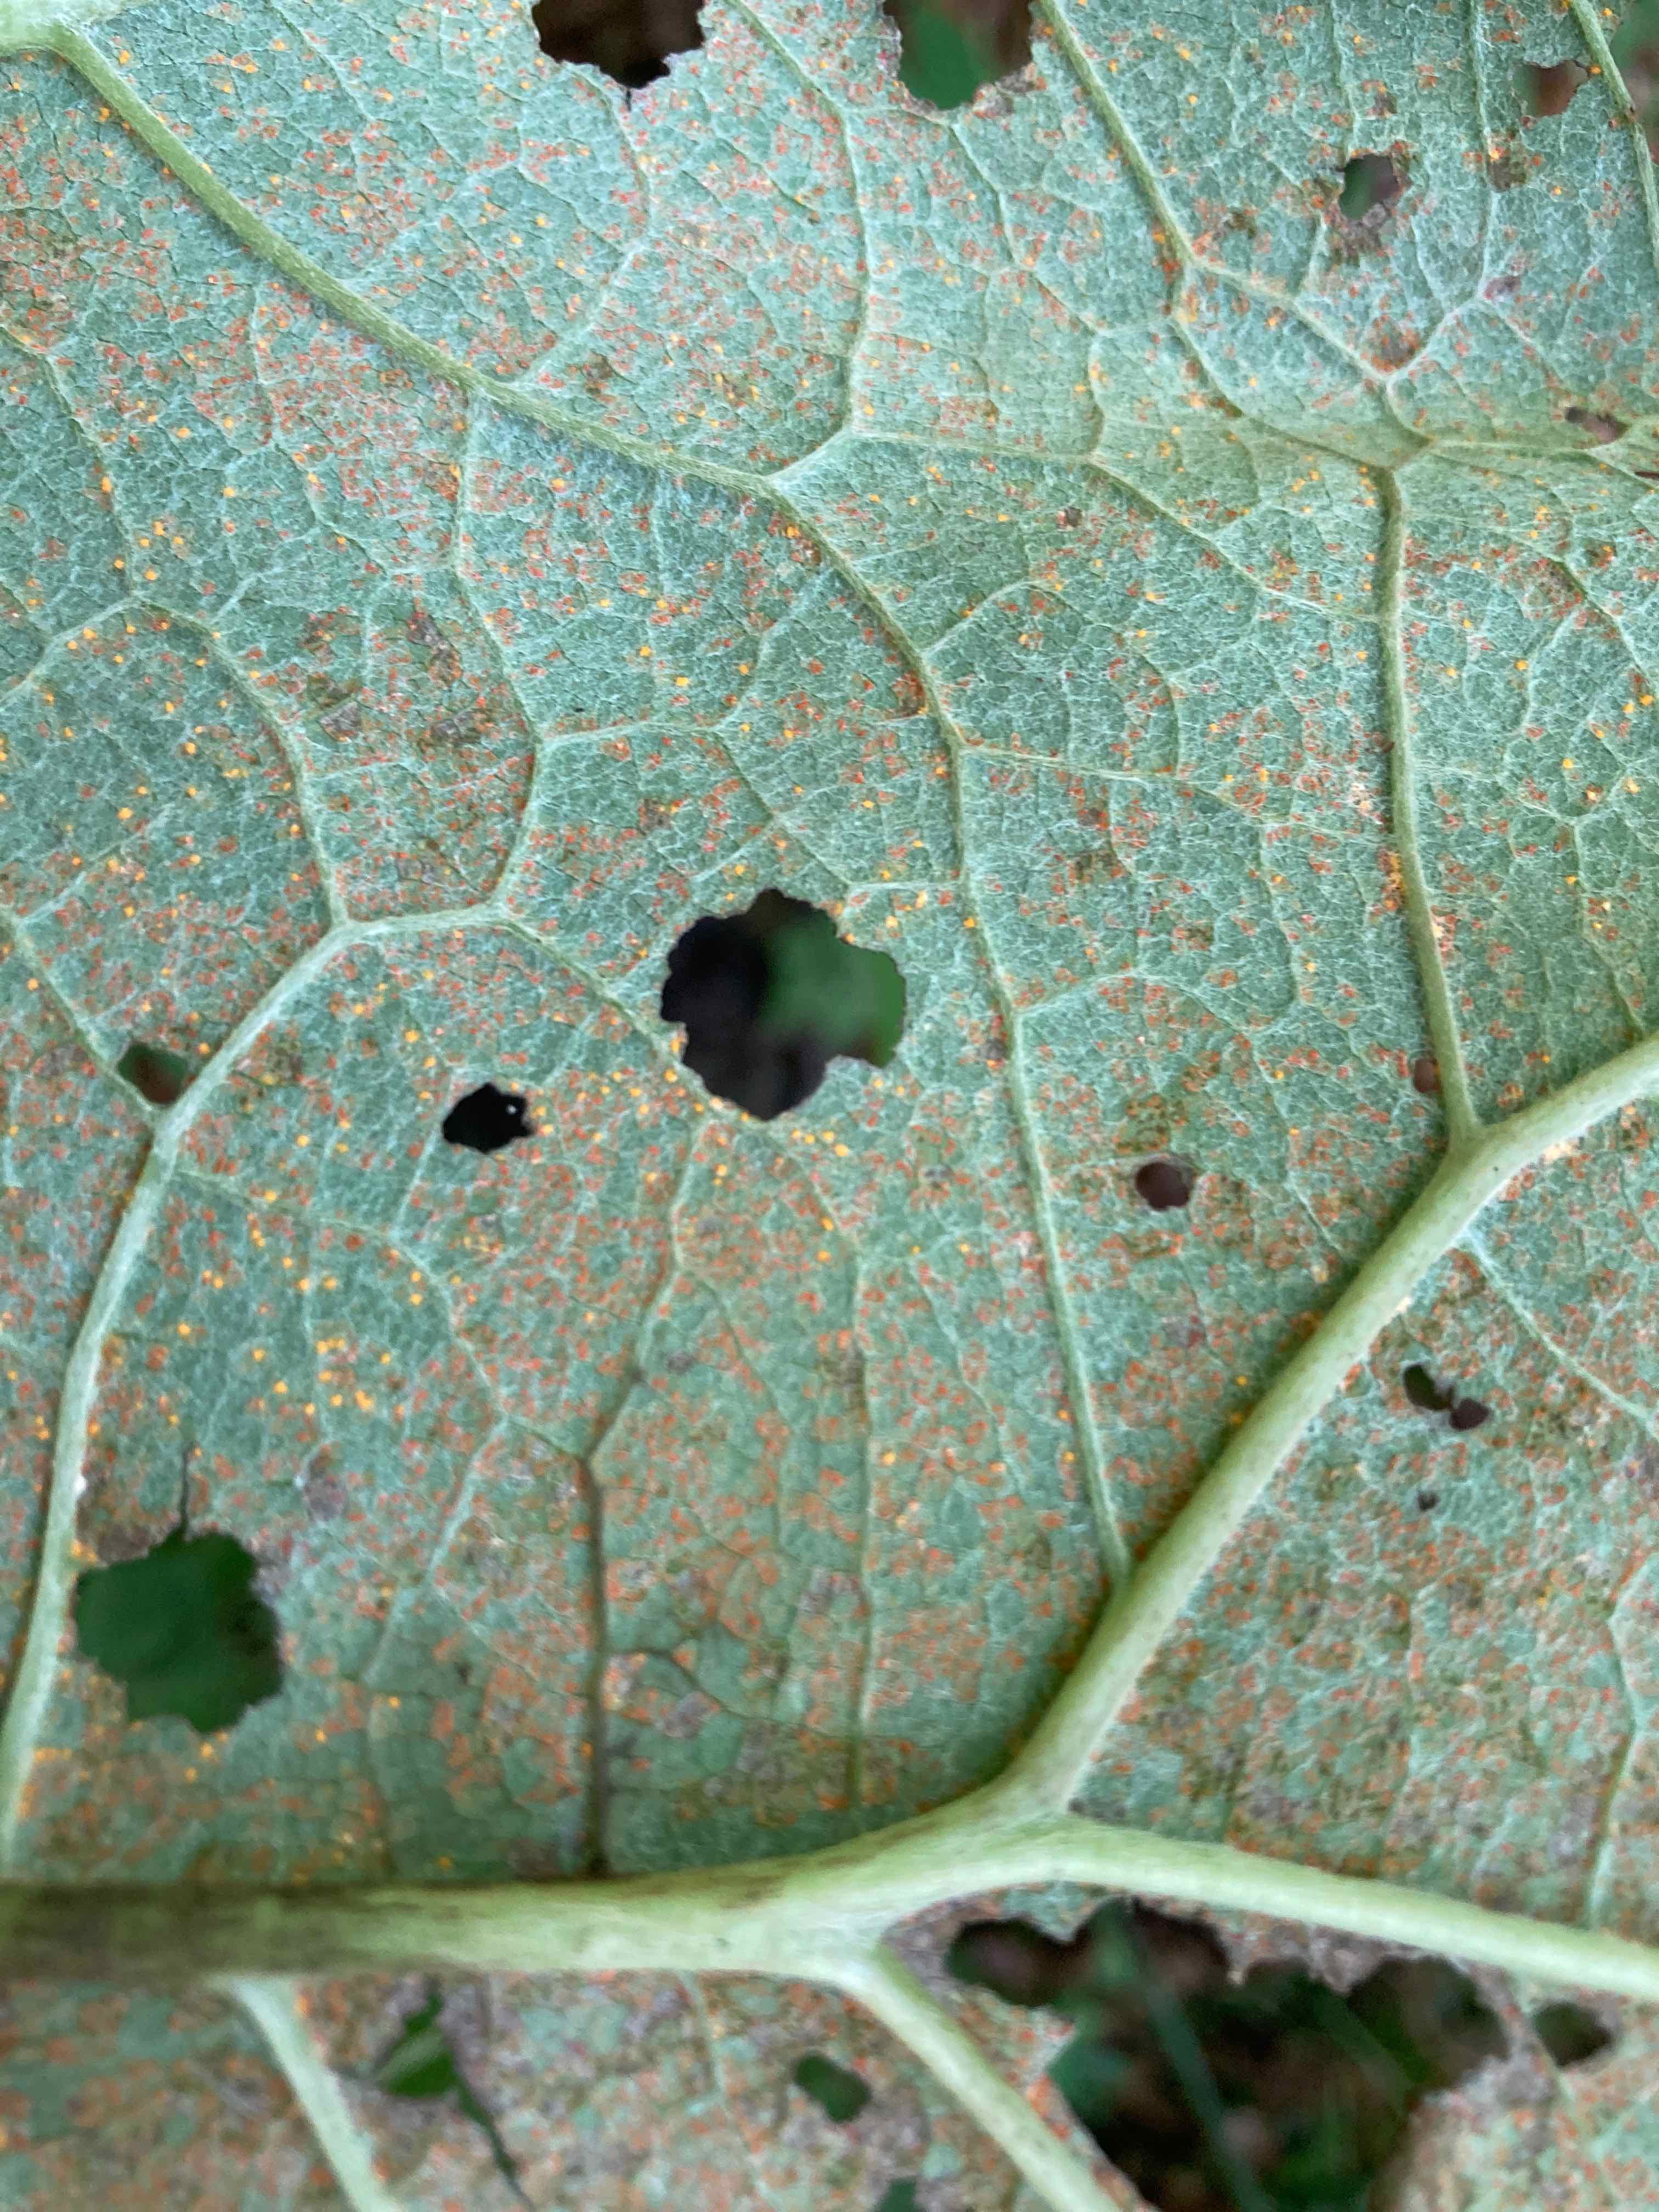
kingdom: Fungi
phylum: Basidiomycota
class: Pucciniomycetes
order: Pucciniales
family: Coleosporiaceae
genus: Coleosporium
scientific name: Coleosporium tussilaginis
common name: almindelig fyrrenålerust
